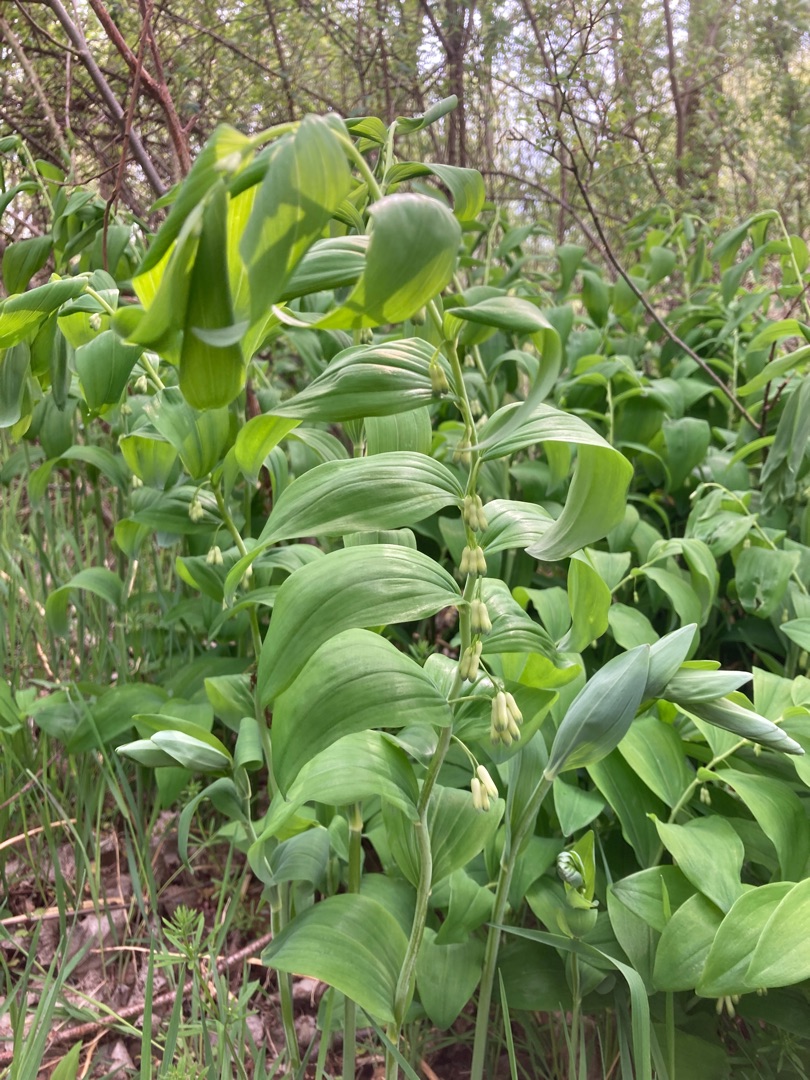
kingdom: Plantae
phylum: Tracheophyta
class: Liliopsida
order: Asparagales
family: Asparagaceae
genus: Polygonatum
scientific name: Polygonatum multiflorum
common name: Stor konval
